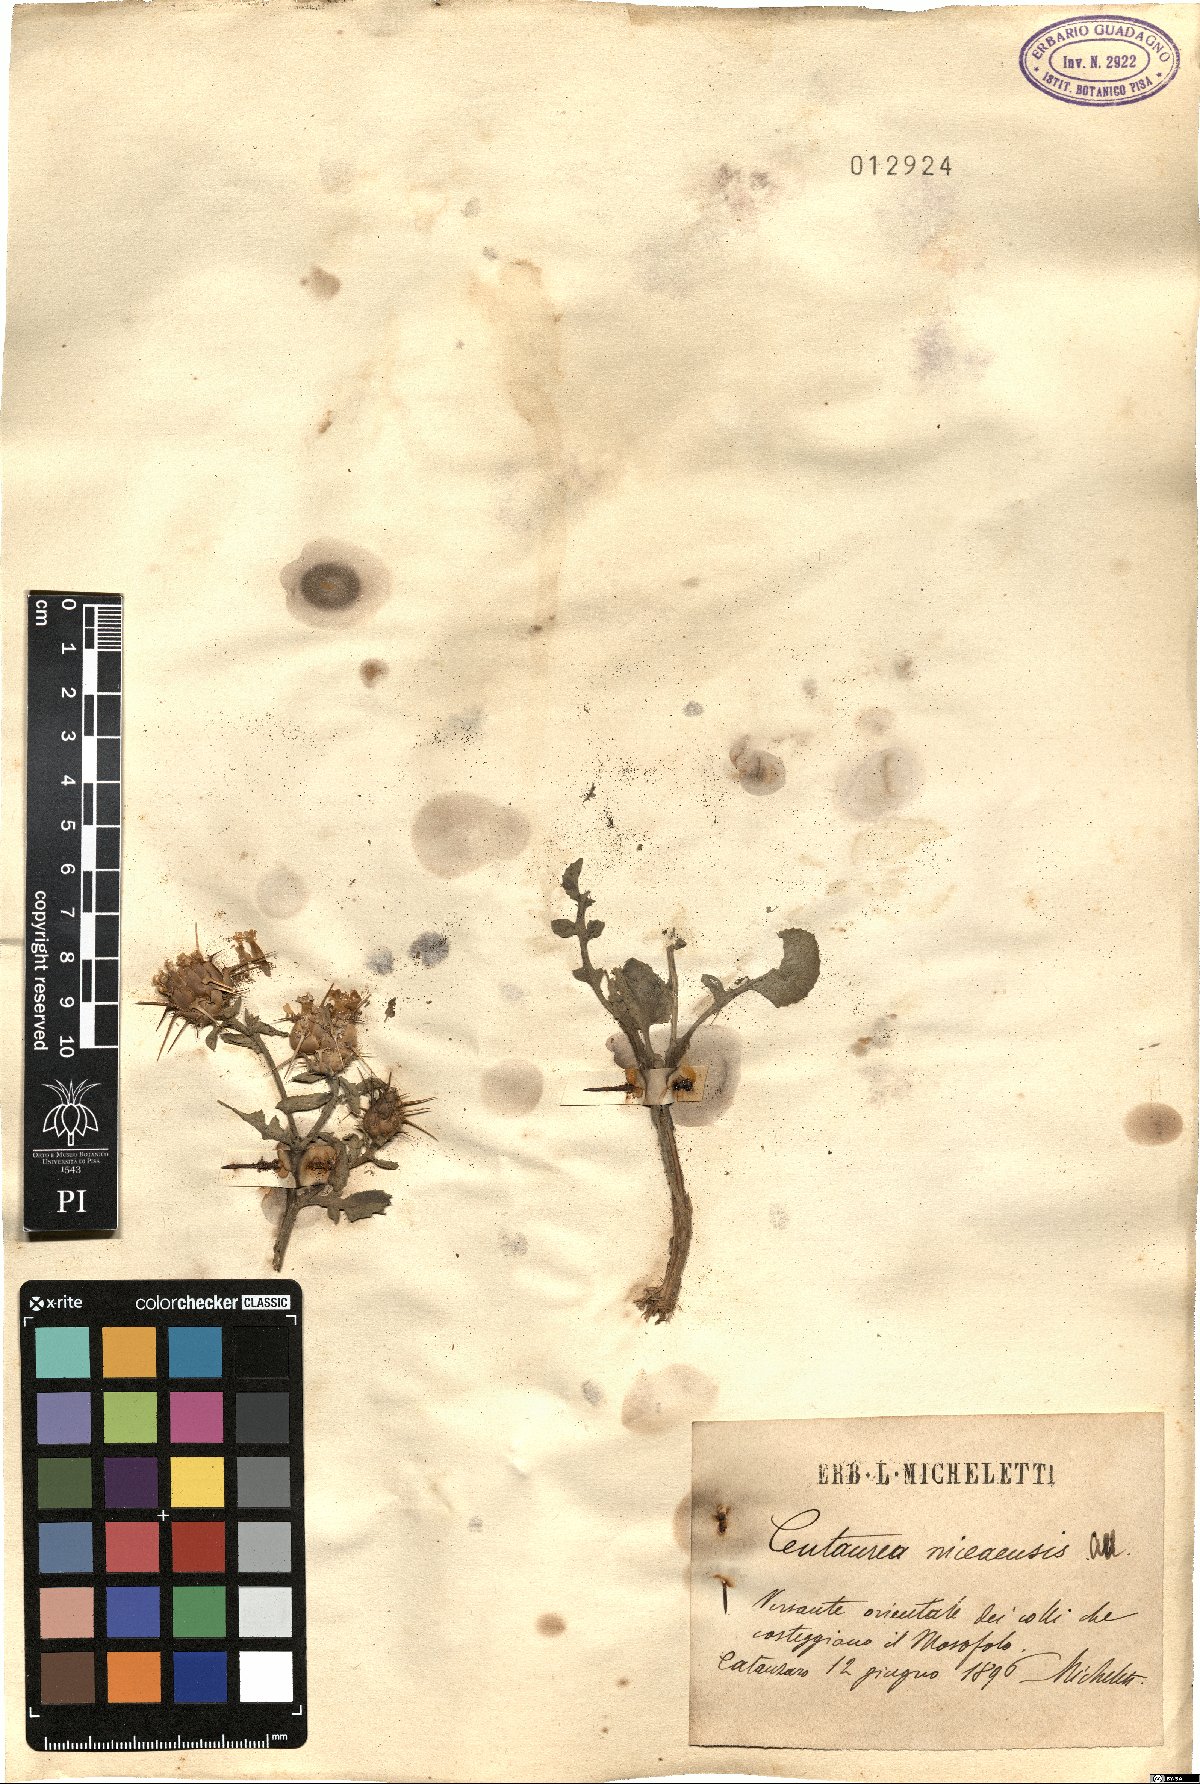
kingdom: Plantae
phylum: Tracheophyta
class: Magnoliopsida
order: Asterales
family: Asteraceae
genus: Centaurea
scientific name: Centaurea sicula
